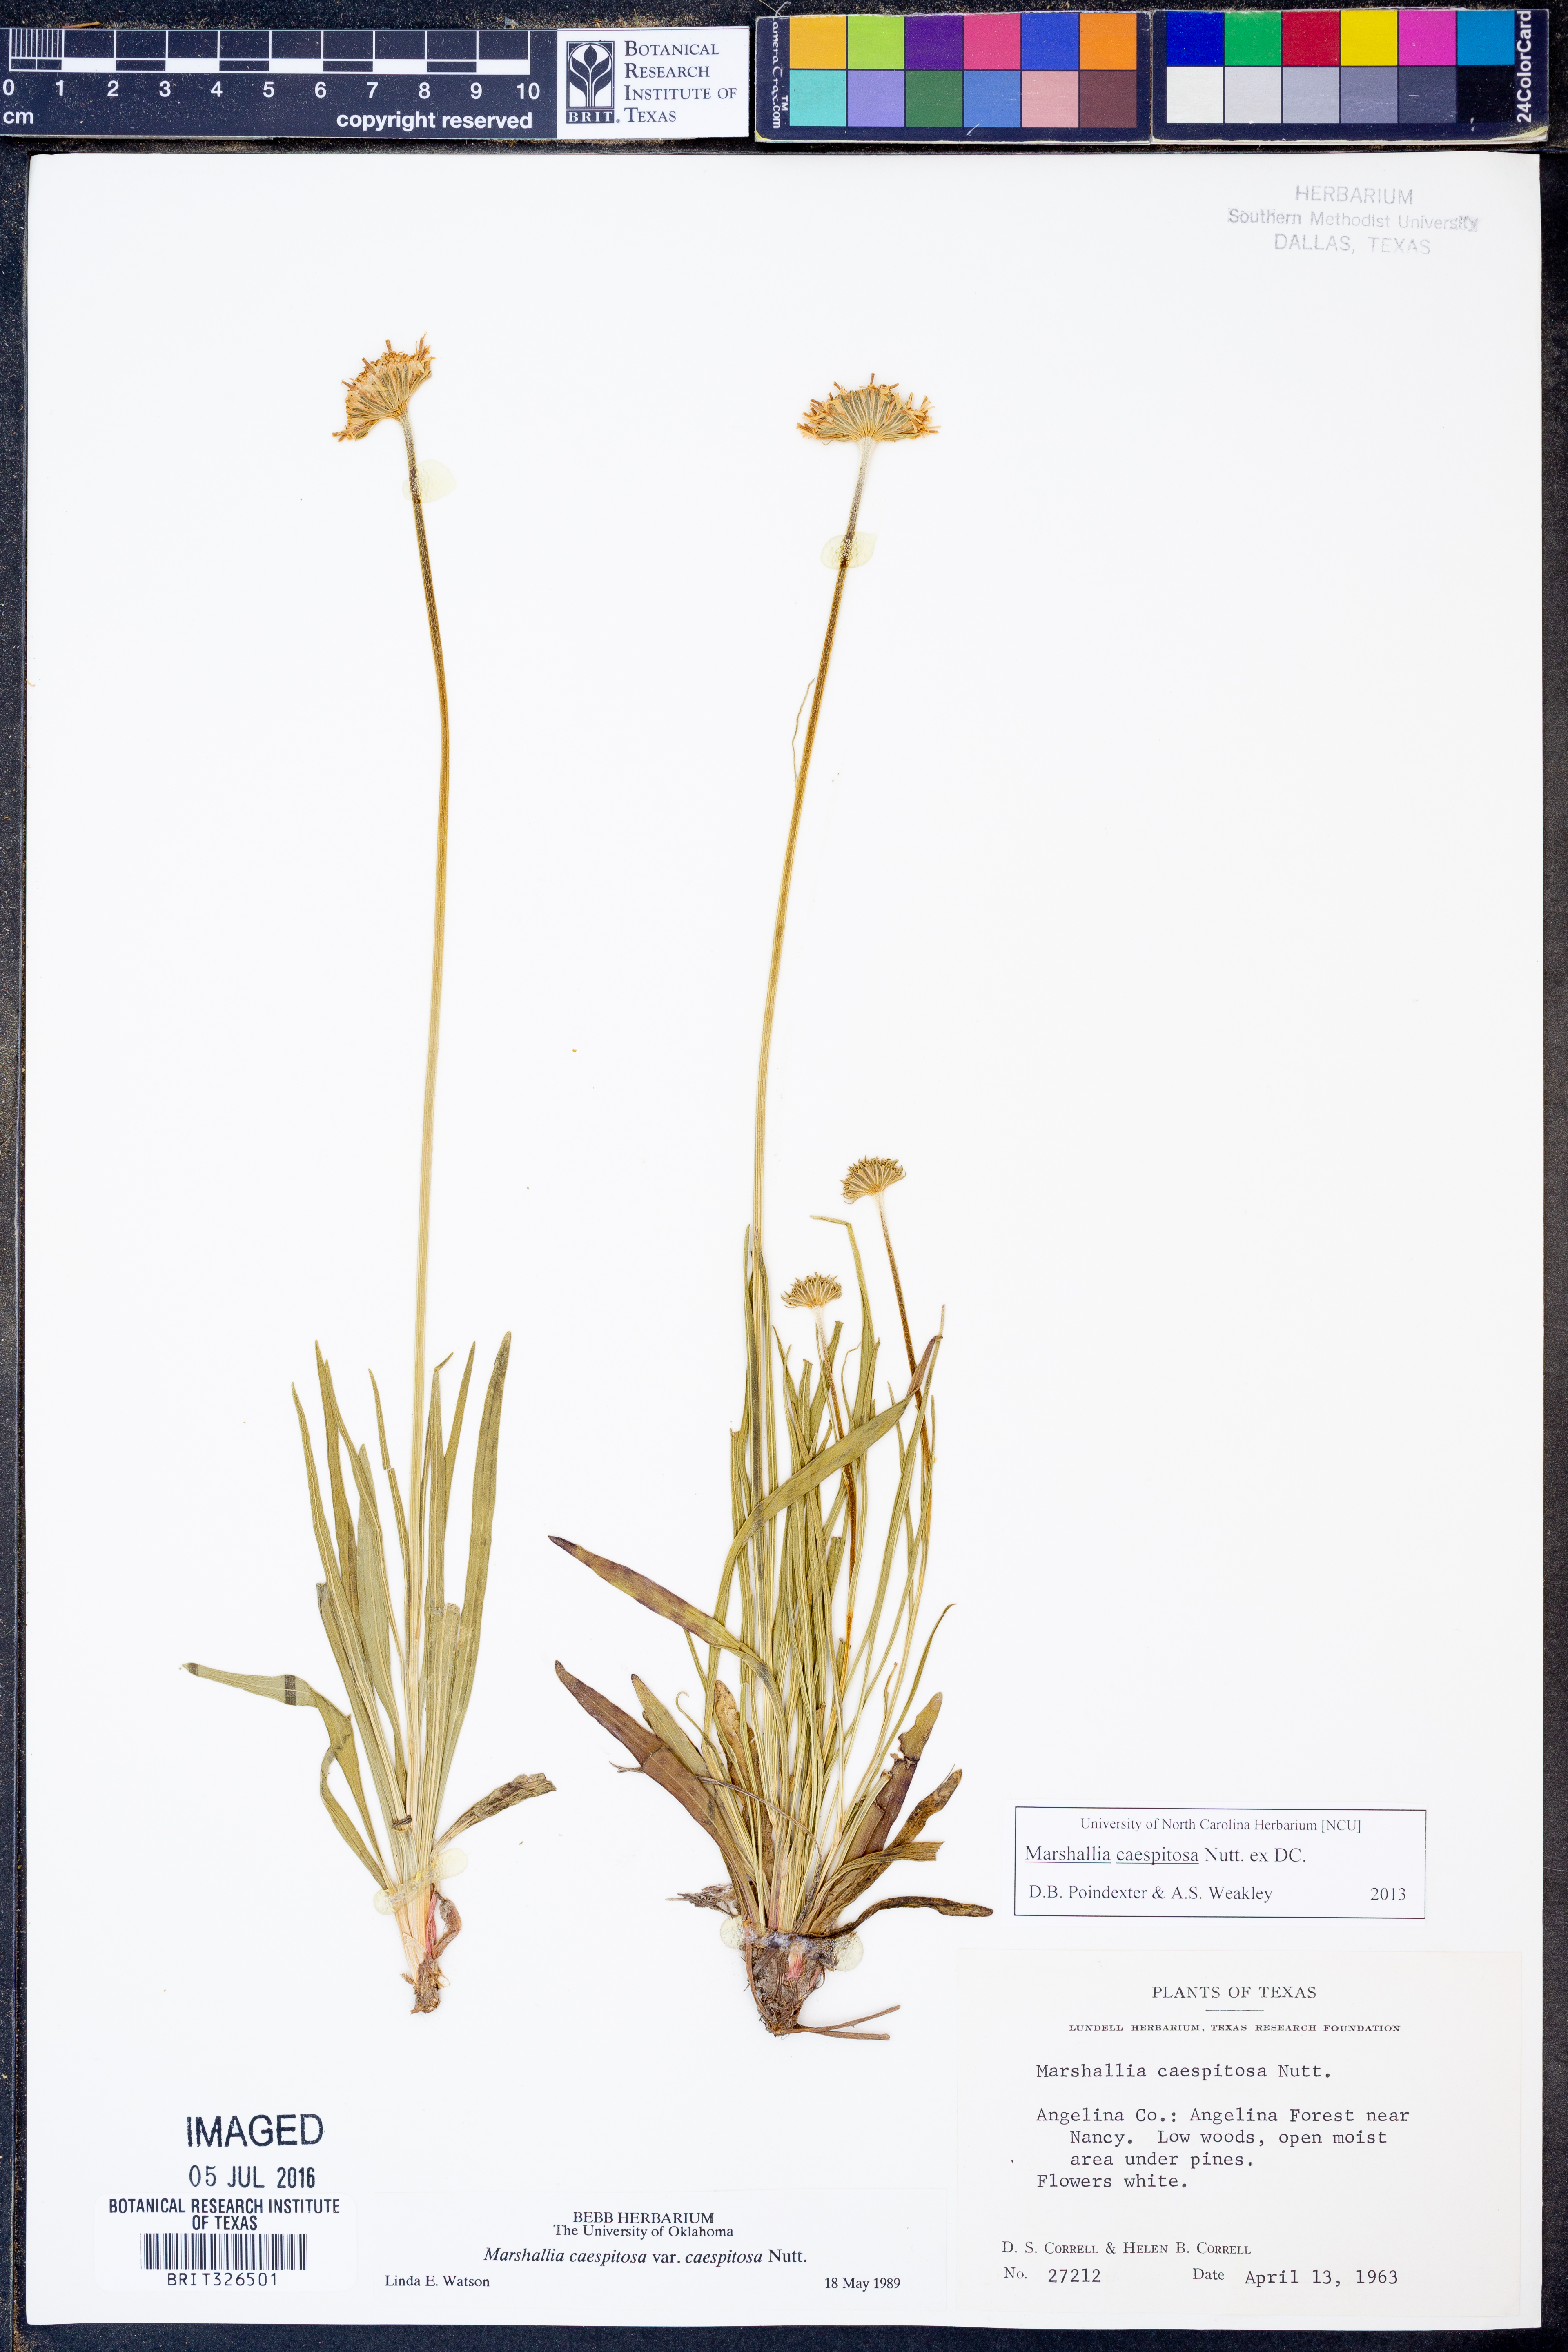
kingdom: Plantae
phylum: Tracheophyta
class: Magnoliopsida
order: Asterales
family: Asteraceae
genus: Marshallia
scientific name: Marshallia caespitosa
